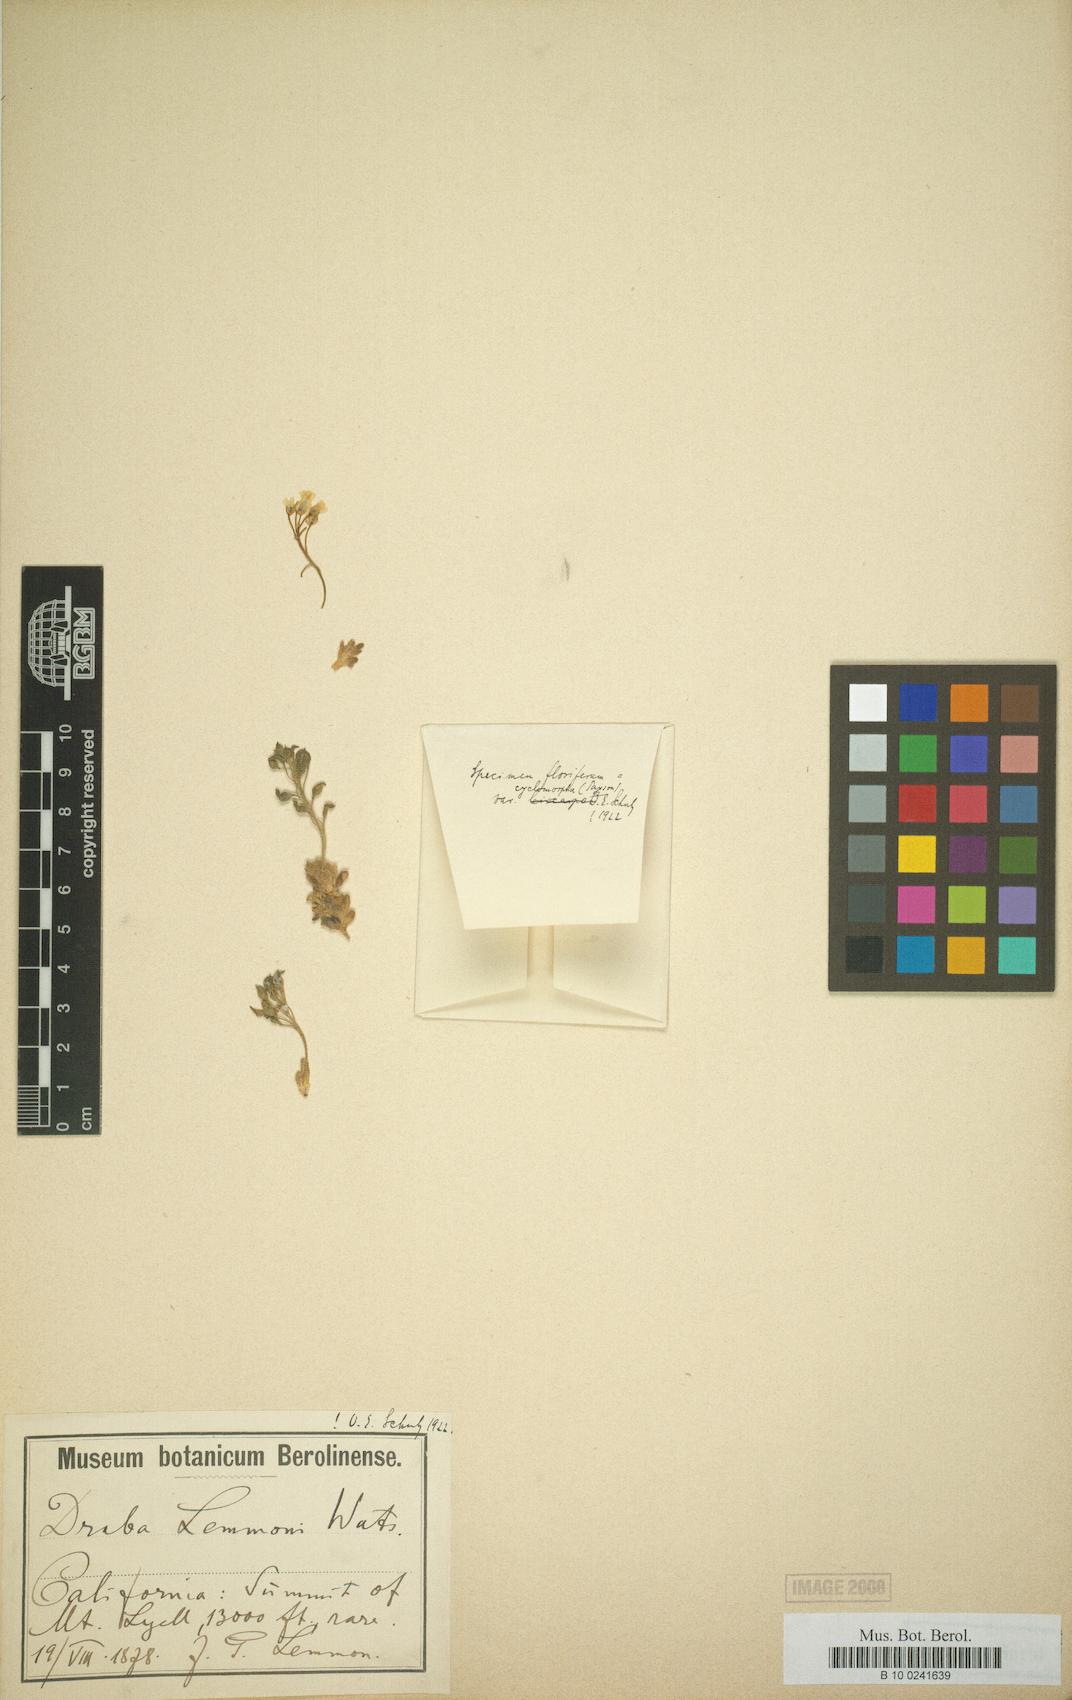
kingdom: Plantae
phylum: Tracheophyta
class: Magnoliopsida
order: Brassicales
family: Brassicaceae
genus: Draba
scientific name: Draba lemmonii
